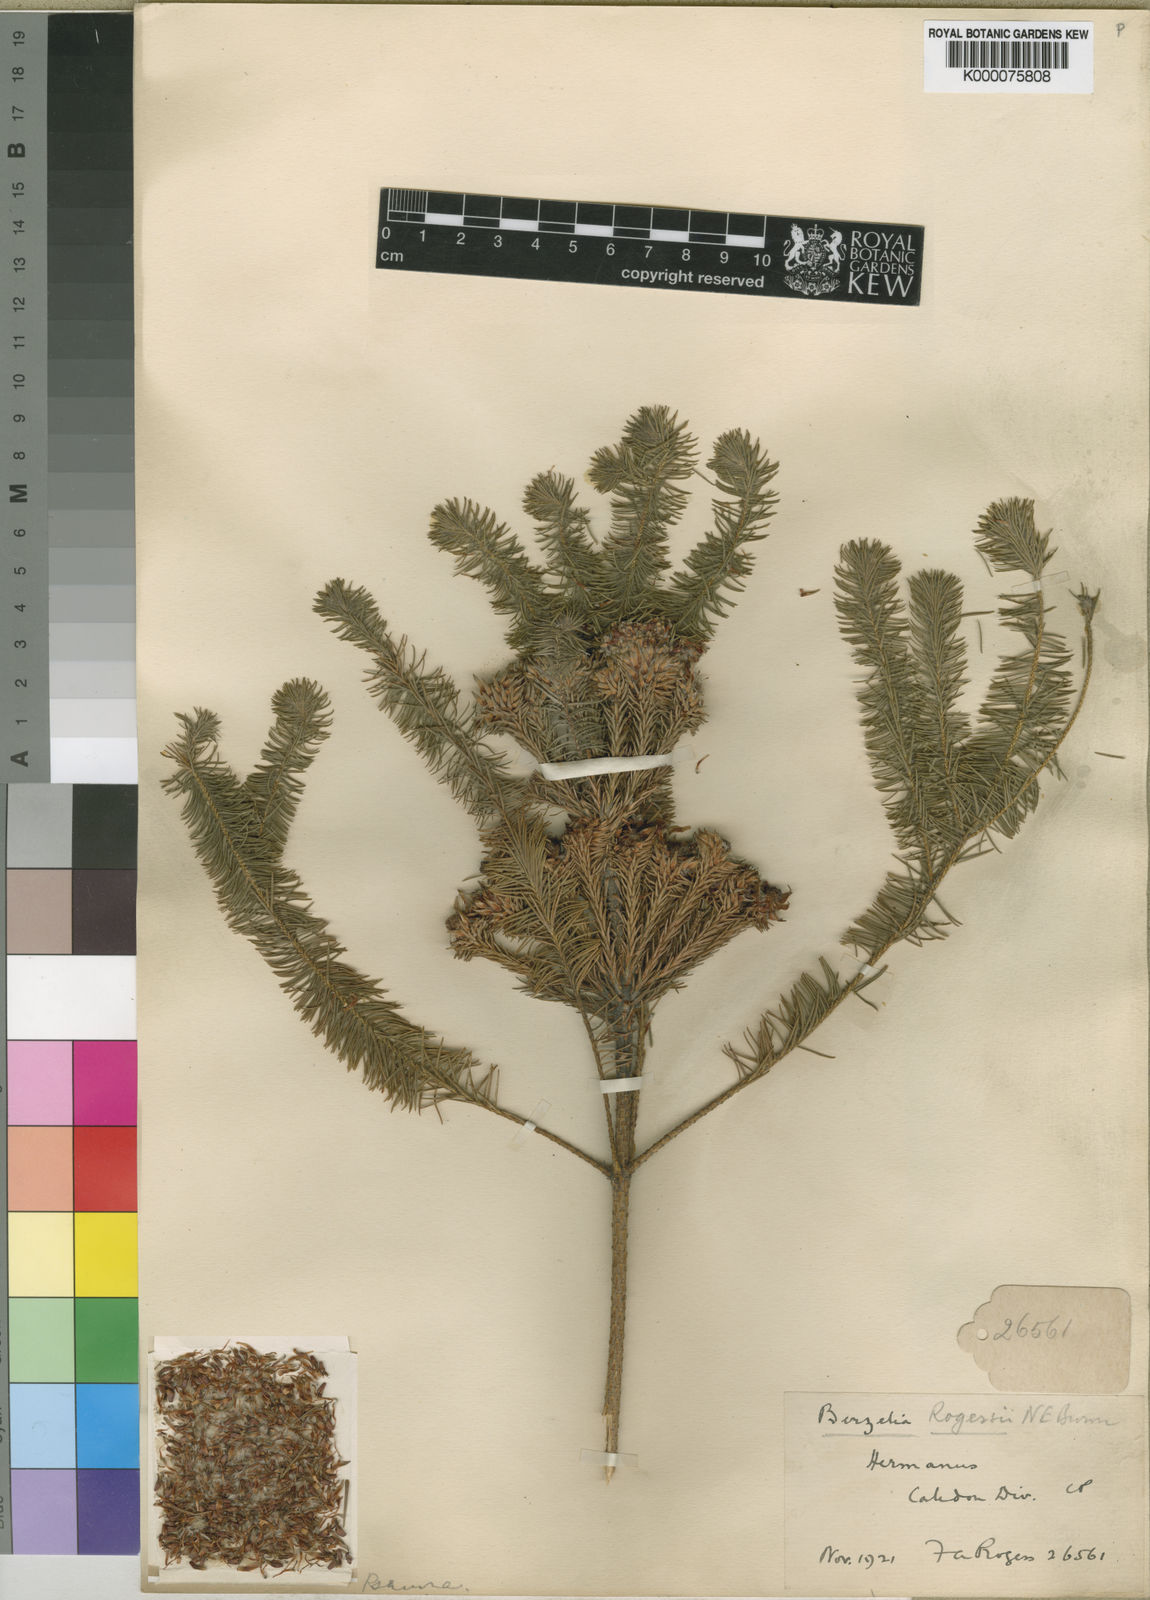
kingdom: Plantae
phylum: Tracheophyta
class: Magnoliopsida
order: Bruniales
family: Bruniaceae
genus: Brunia
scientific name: Brunia
